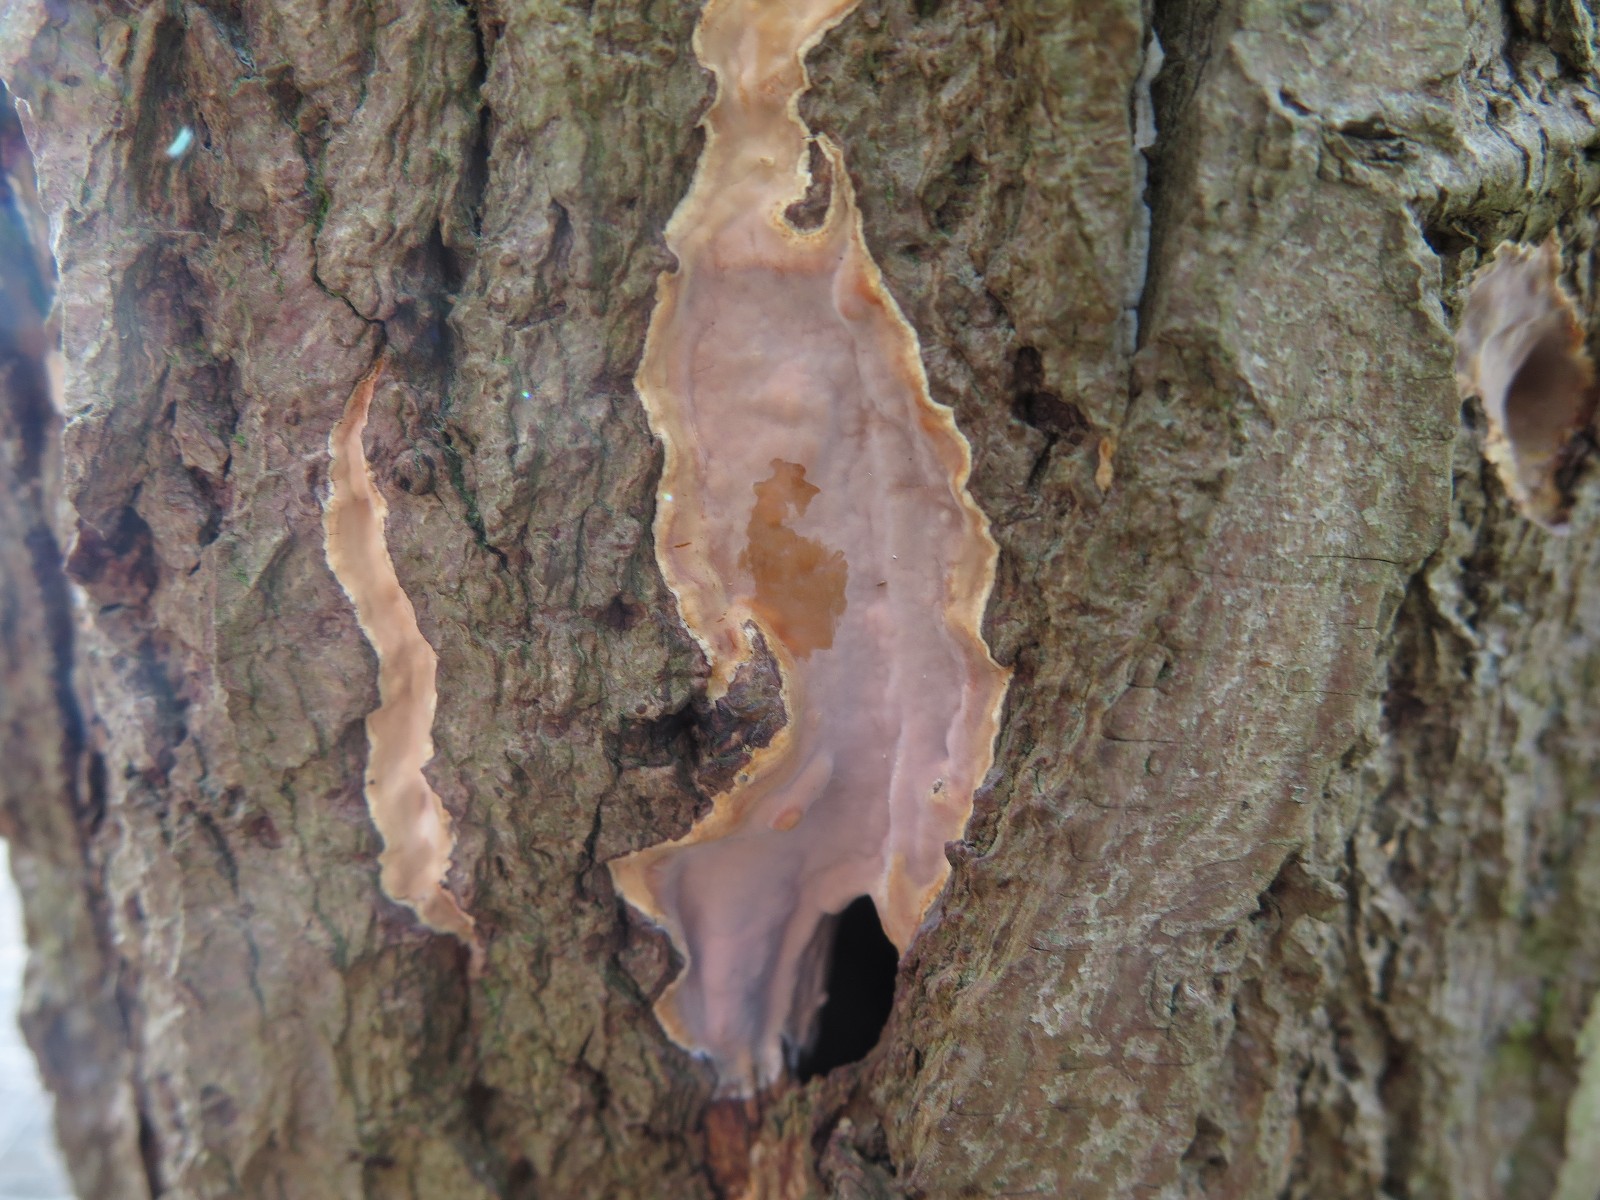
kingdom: Fungi
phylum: Basidiomycota
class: Agaricomycetes
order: Russulales
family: Stereaceae
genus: Stereum
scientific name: Stereum rugosum
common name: rynket lædersvamp
